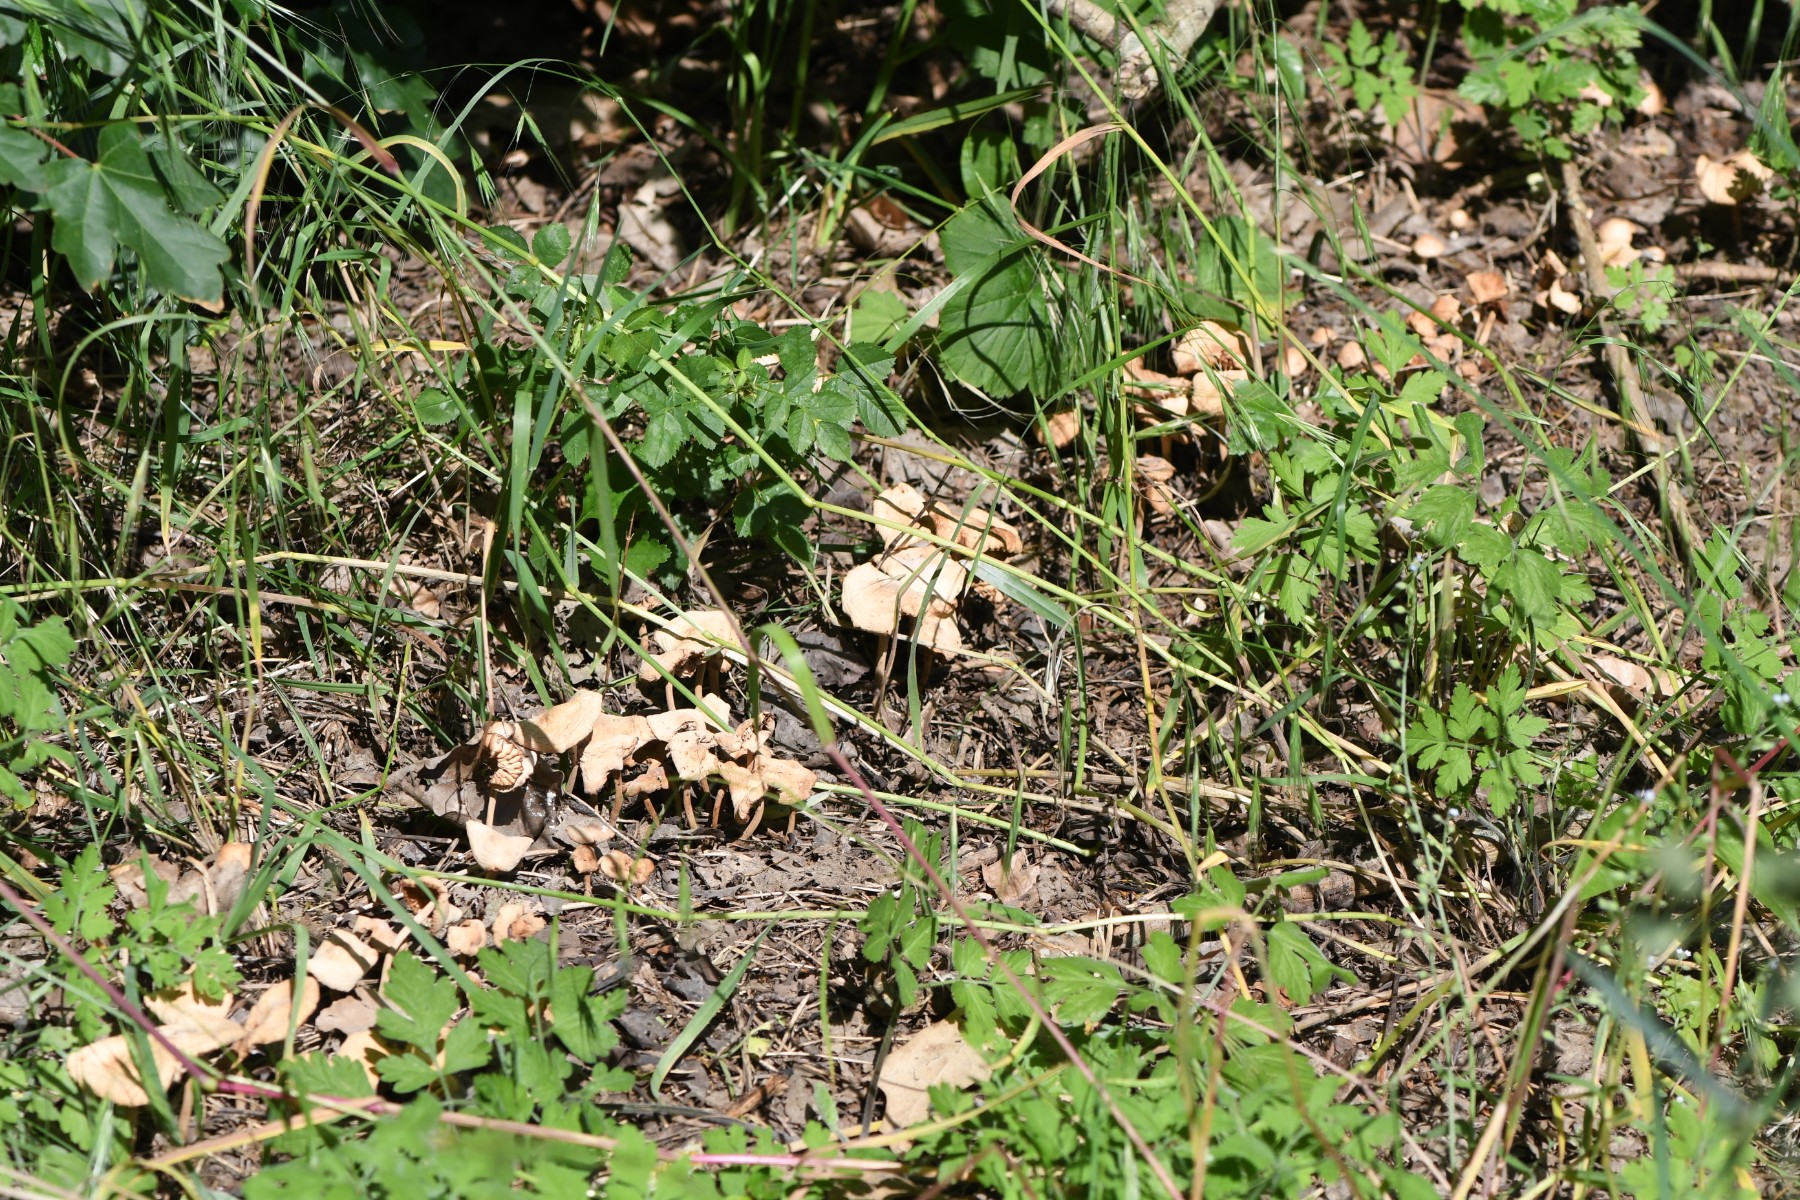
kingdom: Fungi
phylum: Basidiomycota
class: Agaricomycetes
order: Agaricales
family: Marasmiaceae
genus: Marasmius
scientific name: Marasmius oreades
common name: elledans-bruskhat
